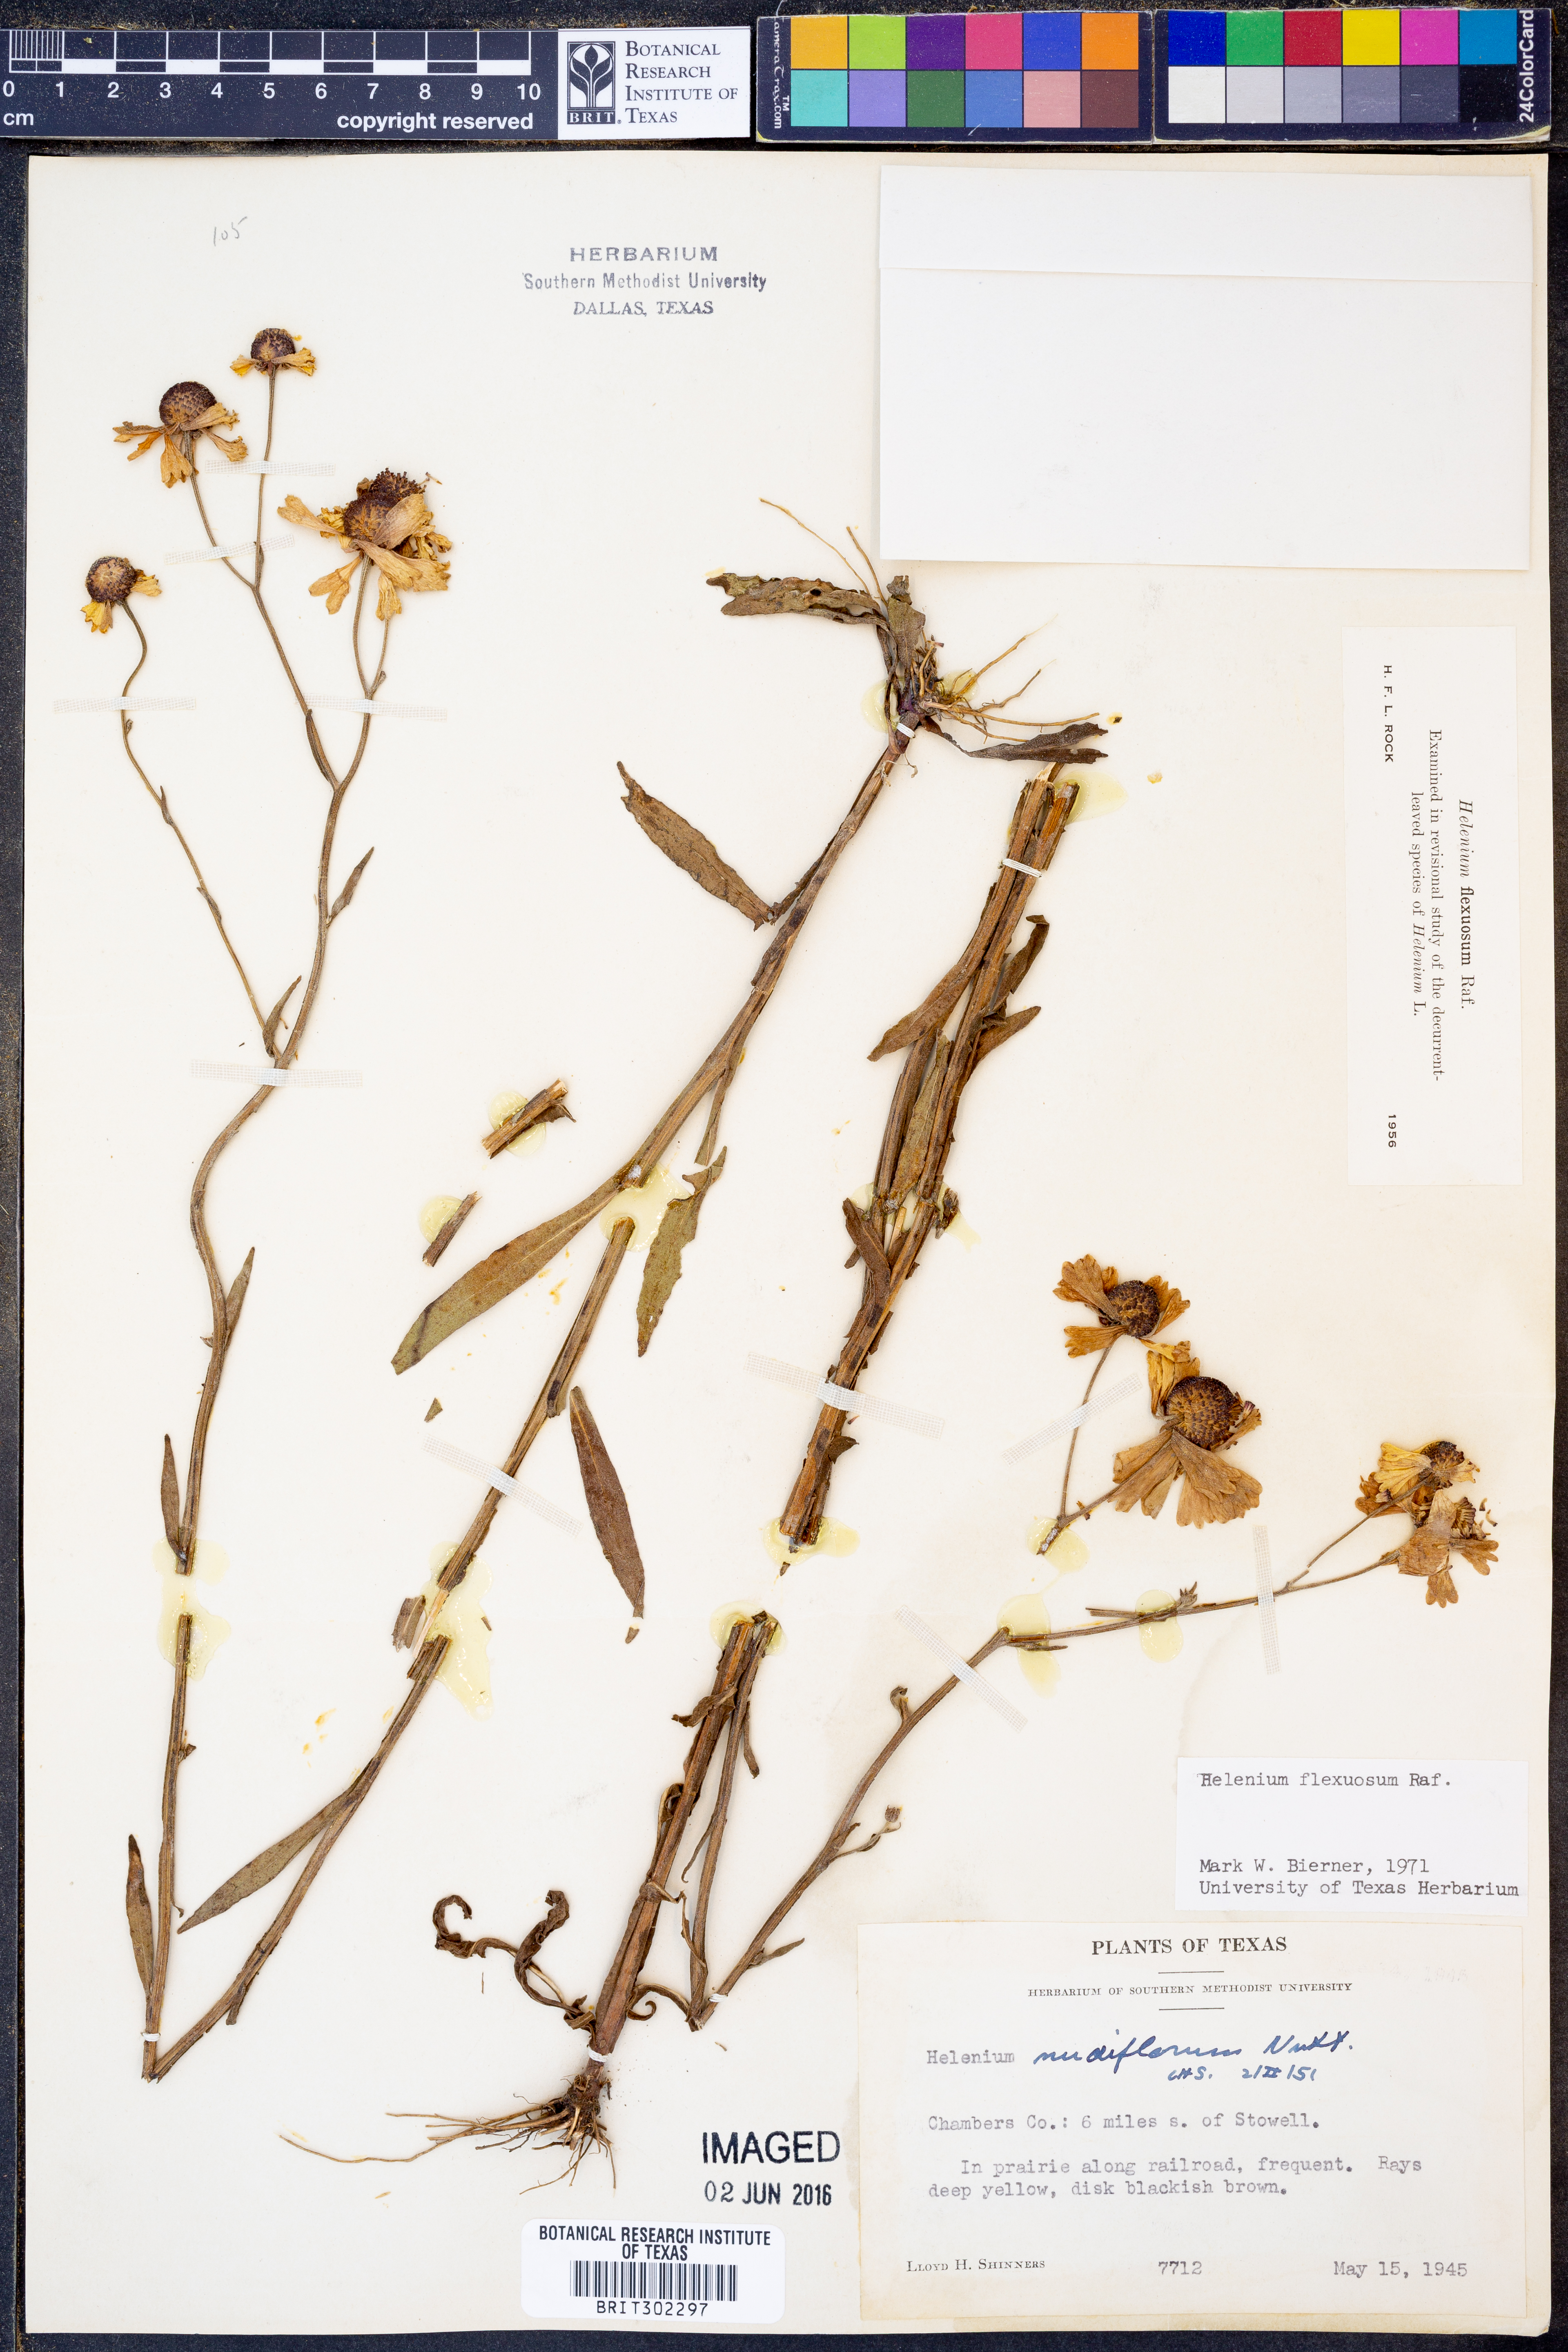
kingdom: Plantae
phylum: Tracheophyta
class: Magnoliopsida
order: Asterales
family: Asteraceae
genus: Helenium
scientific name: Helenium flexuosum
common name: Naked-flowered sneezeweed
